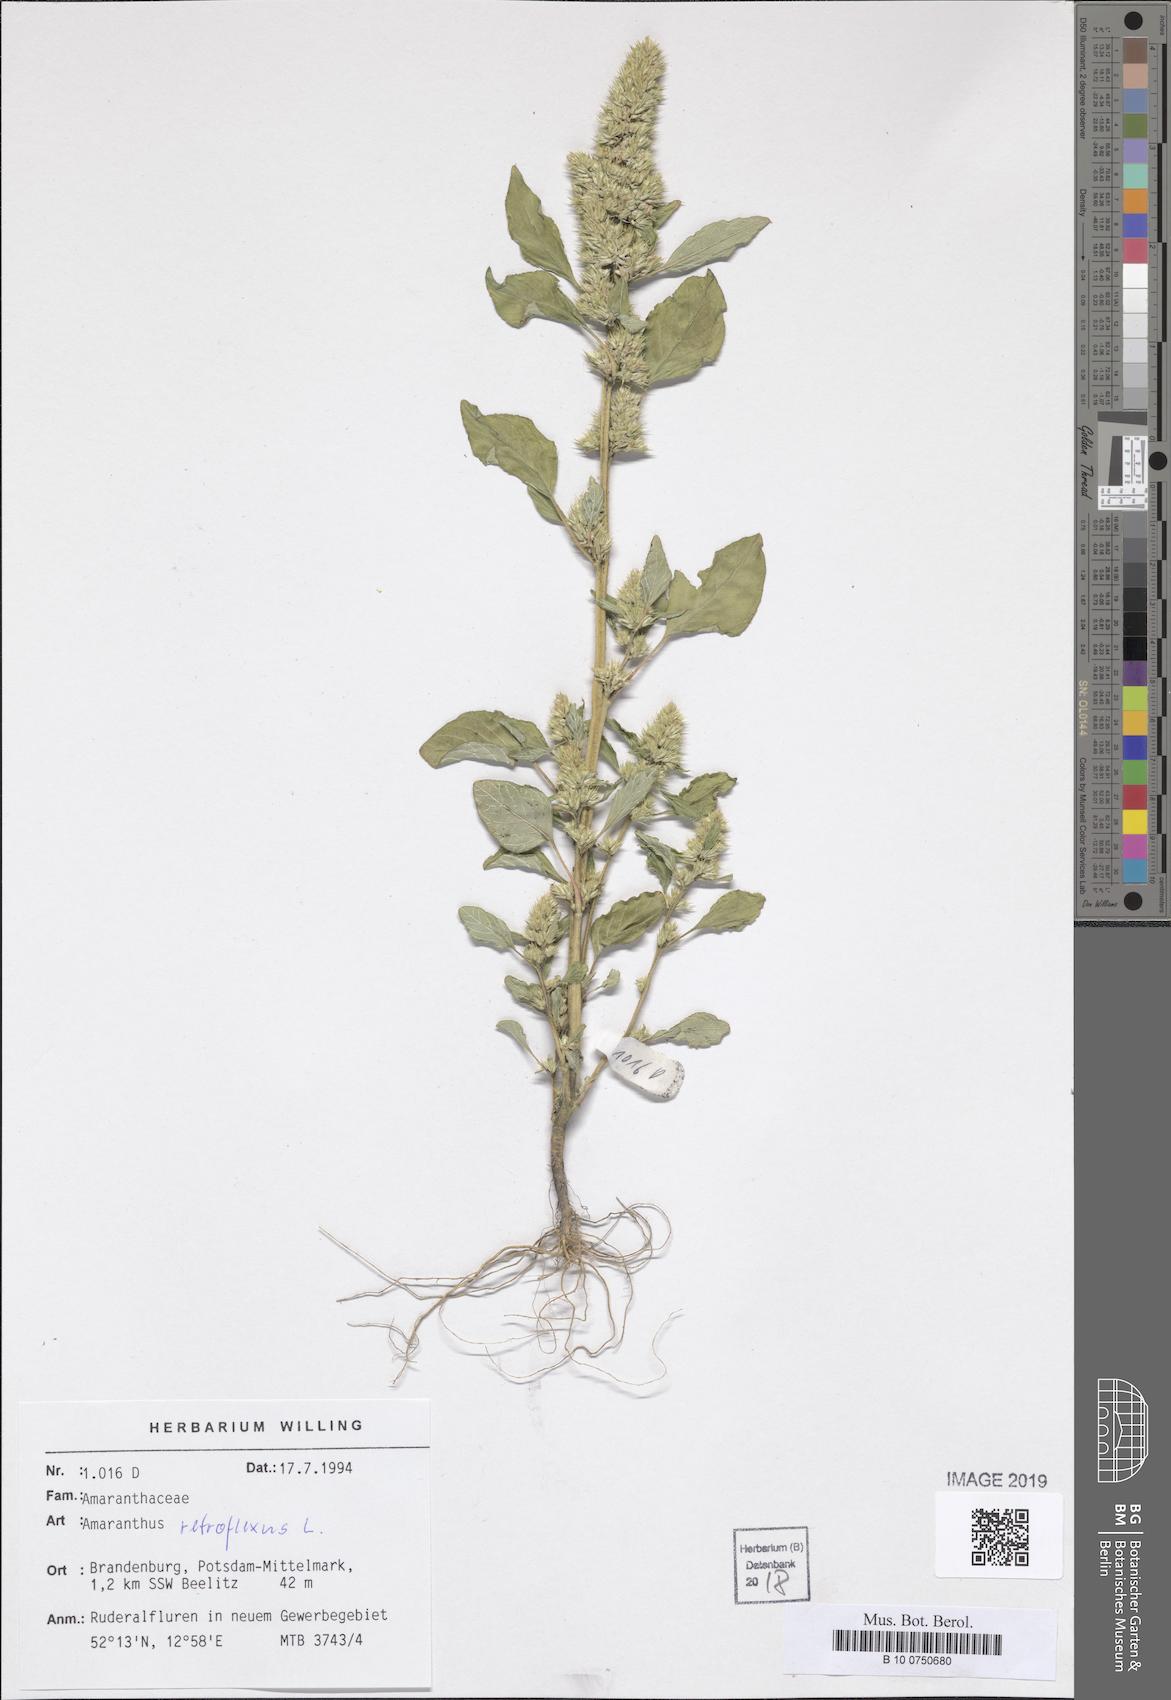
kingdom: Plantae
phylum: Tracheophyta
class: Magnoliopsida
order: Caryophyllales
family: Amaranthaceae
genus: Amaranthus
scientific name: Amaranthus retroflexus
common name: Redroot amaranth
